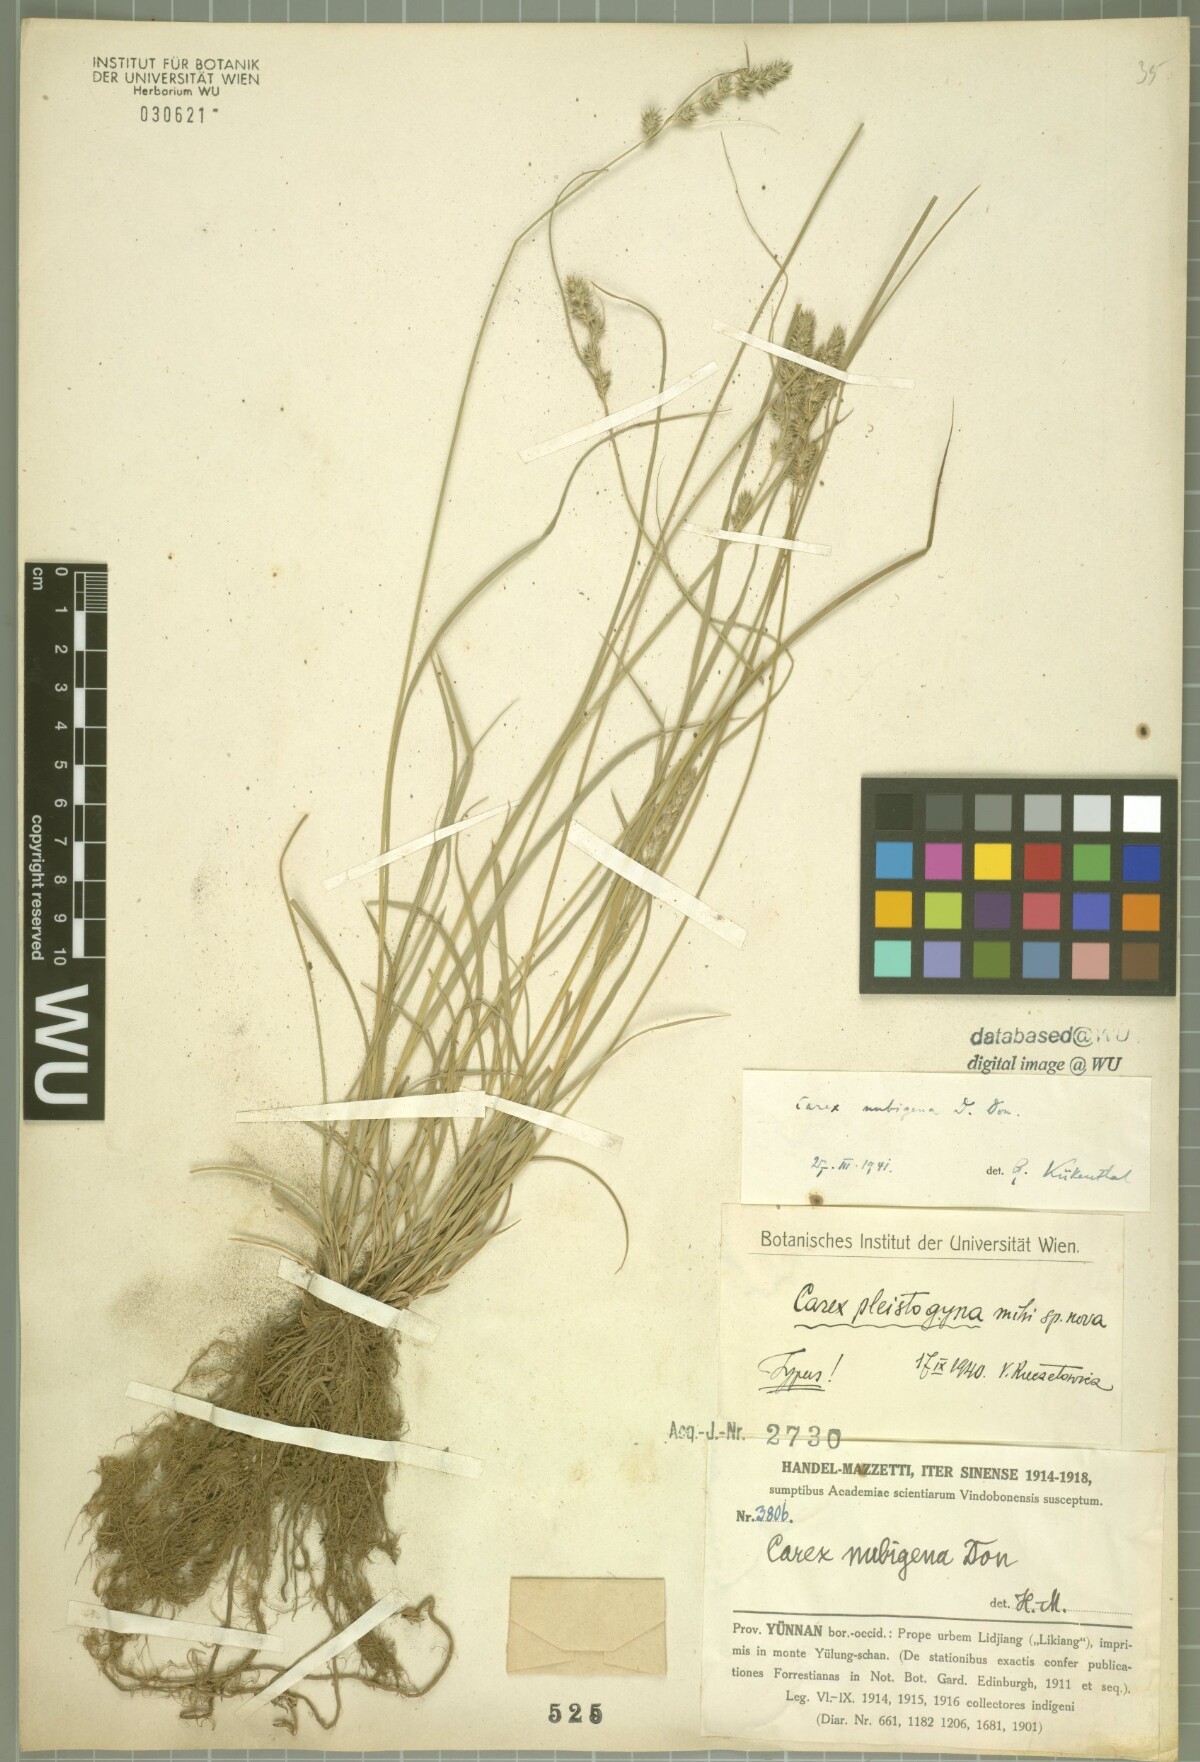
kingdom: Plantae
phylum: Tracheophyta
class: Liliopsida
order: Poales
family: Cyperaceae
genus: Carex
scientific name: Carex nubigena
